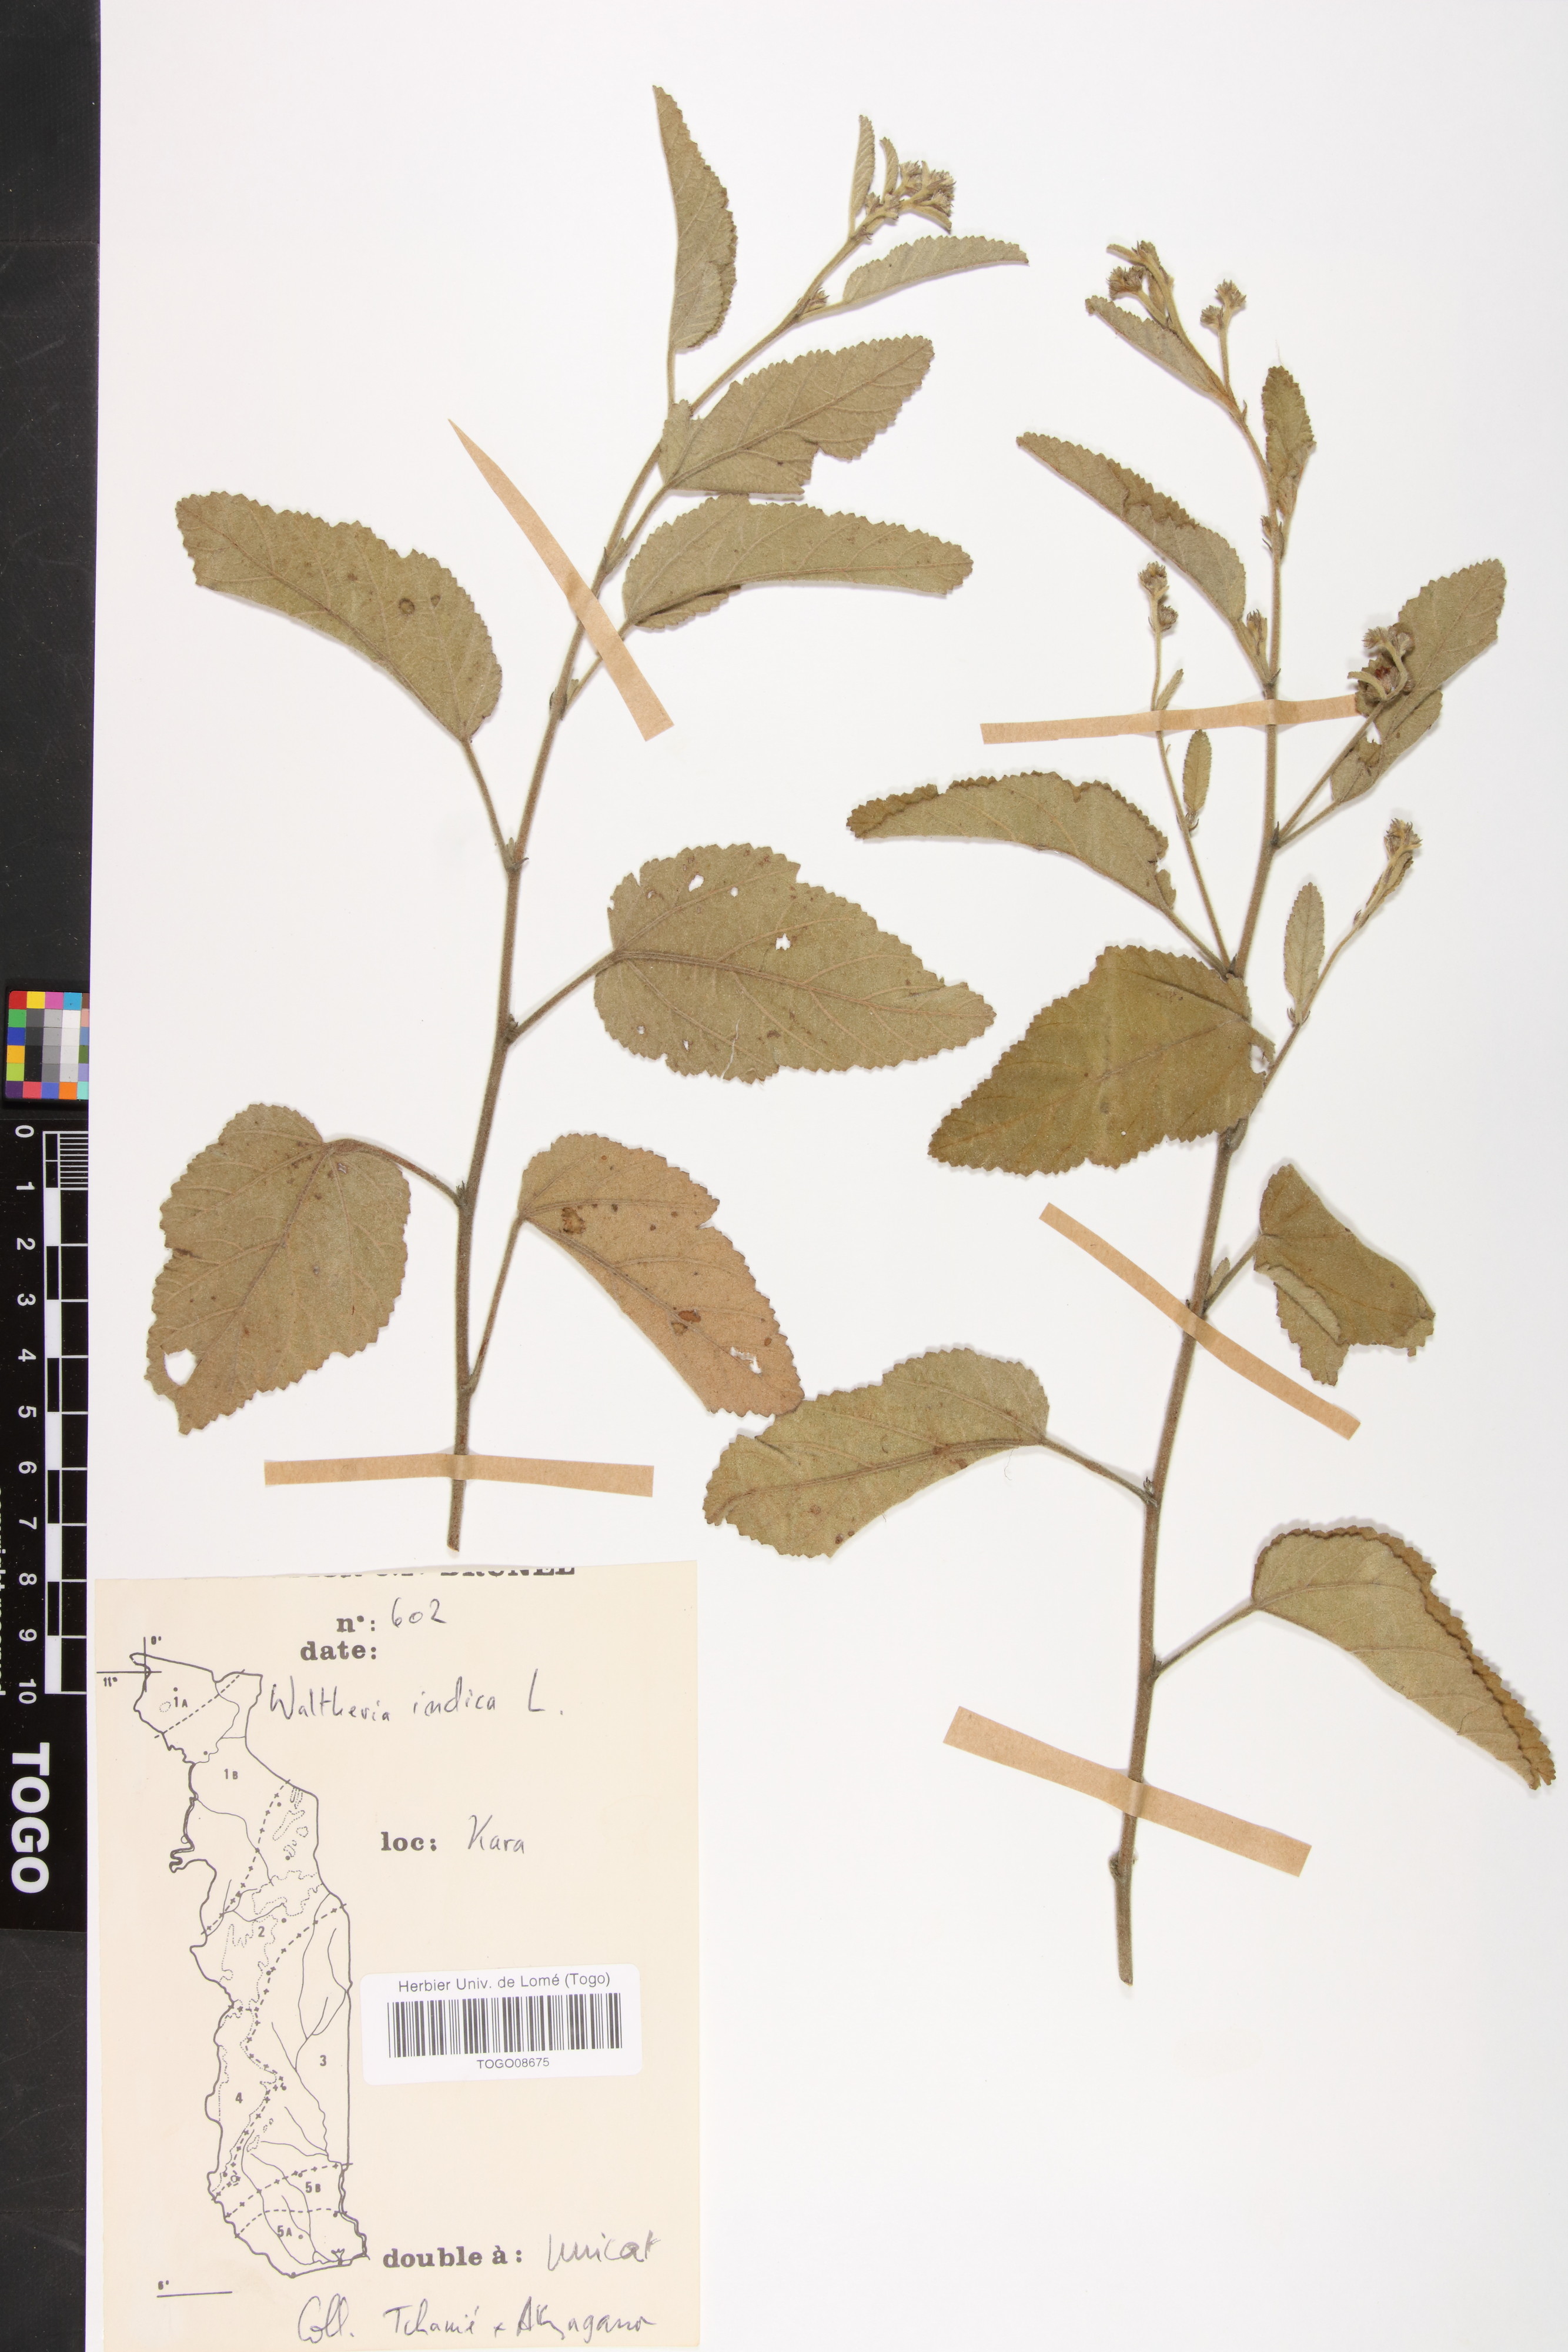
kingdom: Plantae
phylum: Tracheophyta
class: Magnoliopsida
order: Malvales
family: Malvaceae
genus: Waltheria
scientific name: Waltheria indica
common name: Leather-coat
